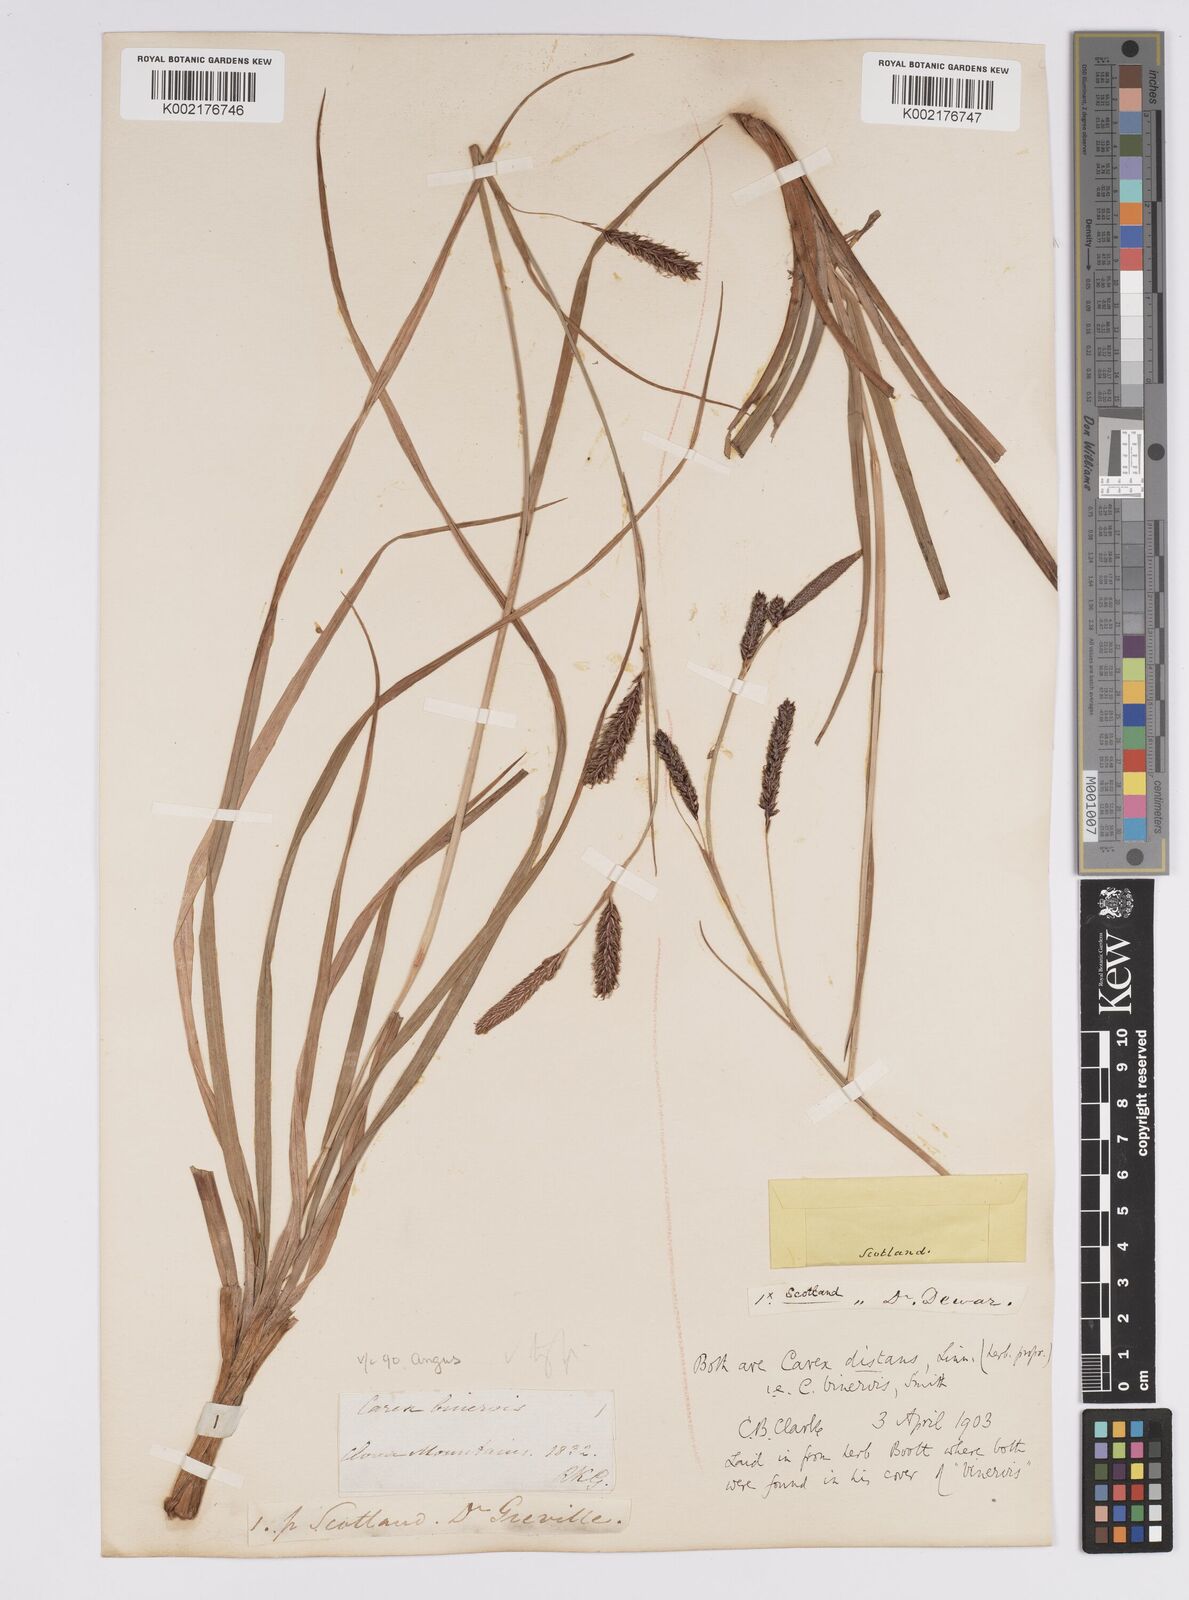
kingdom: Plantae
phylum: Tracheophyta
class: Liliopsida
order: Poales
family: Cyperaceae
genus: Carex
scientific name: Carex binervis
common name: Green-ribbed sedge
